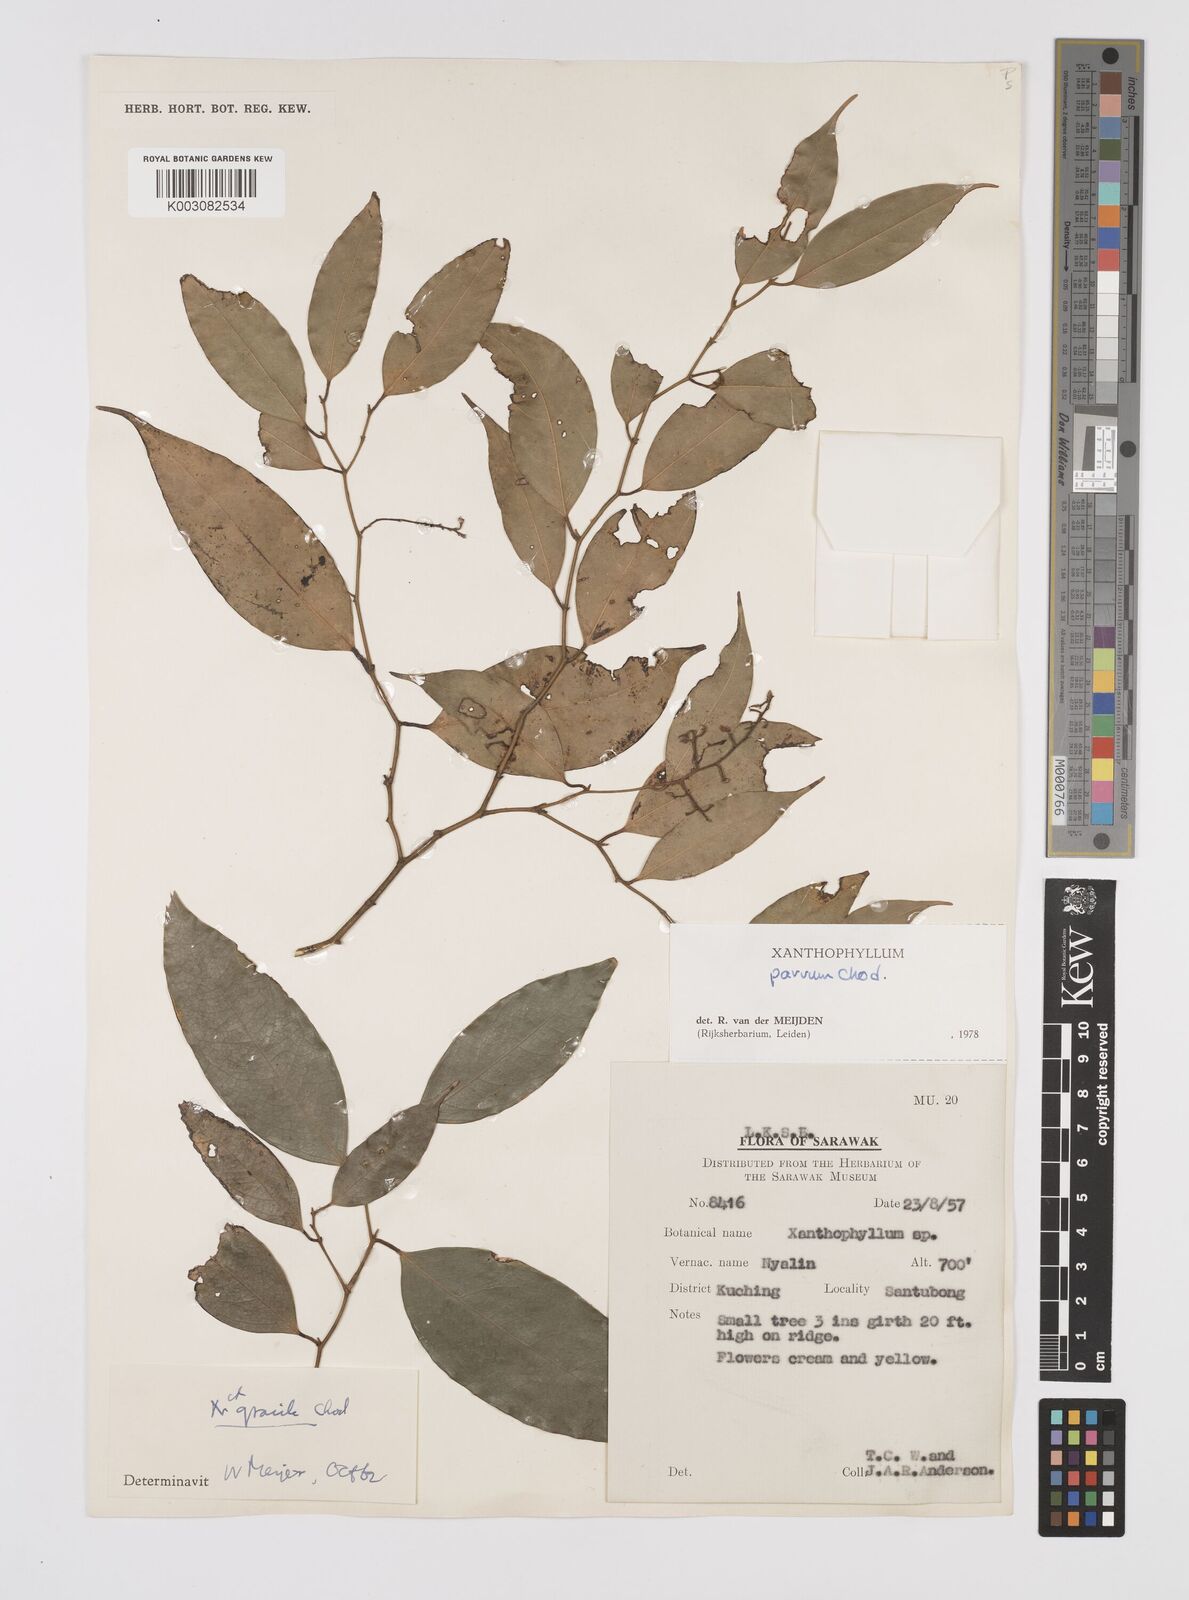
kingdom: Plantae
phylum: Tracheophyta
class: Magnoliopsida
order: Fabales
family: Polygalaceae
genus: Xanthophyllum
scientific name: Xanthophyllum griffithii
